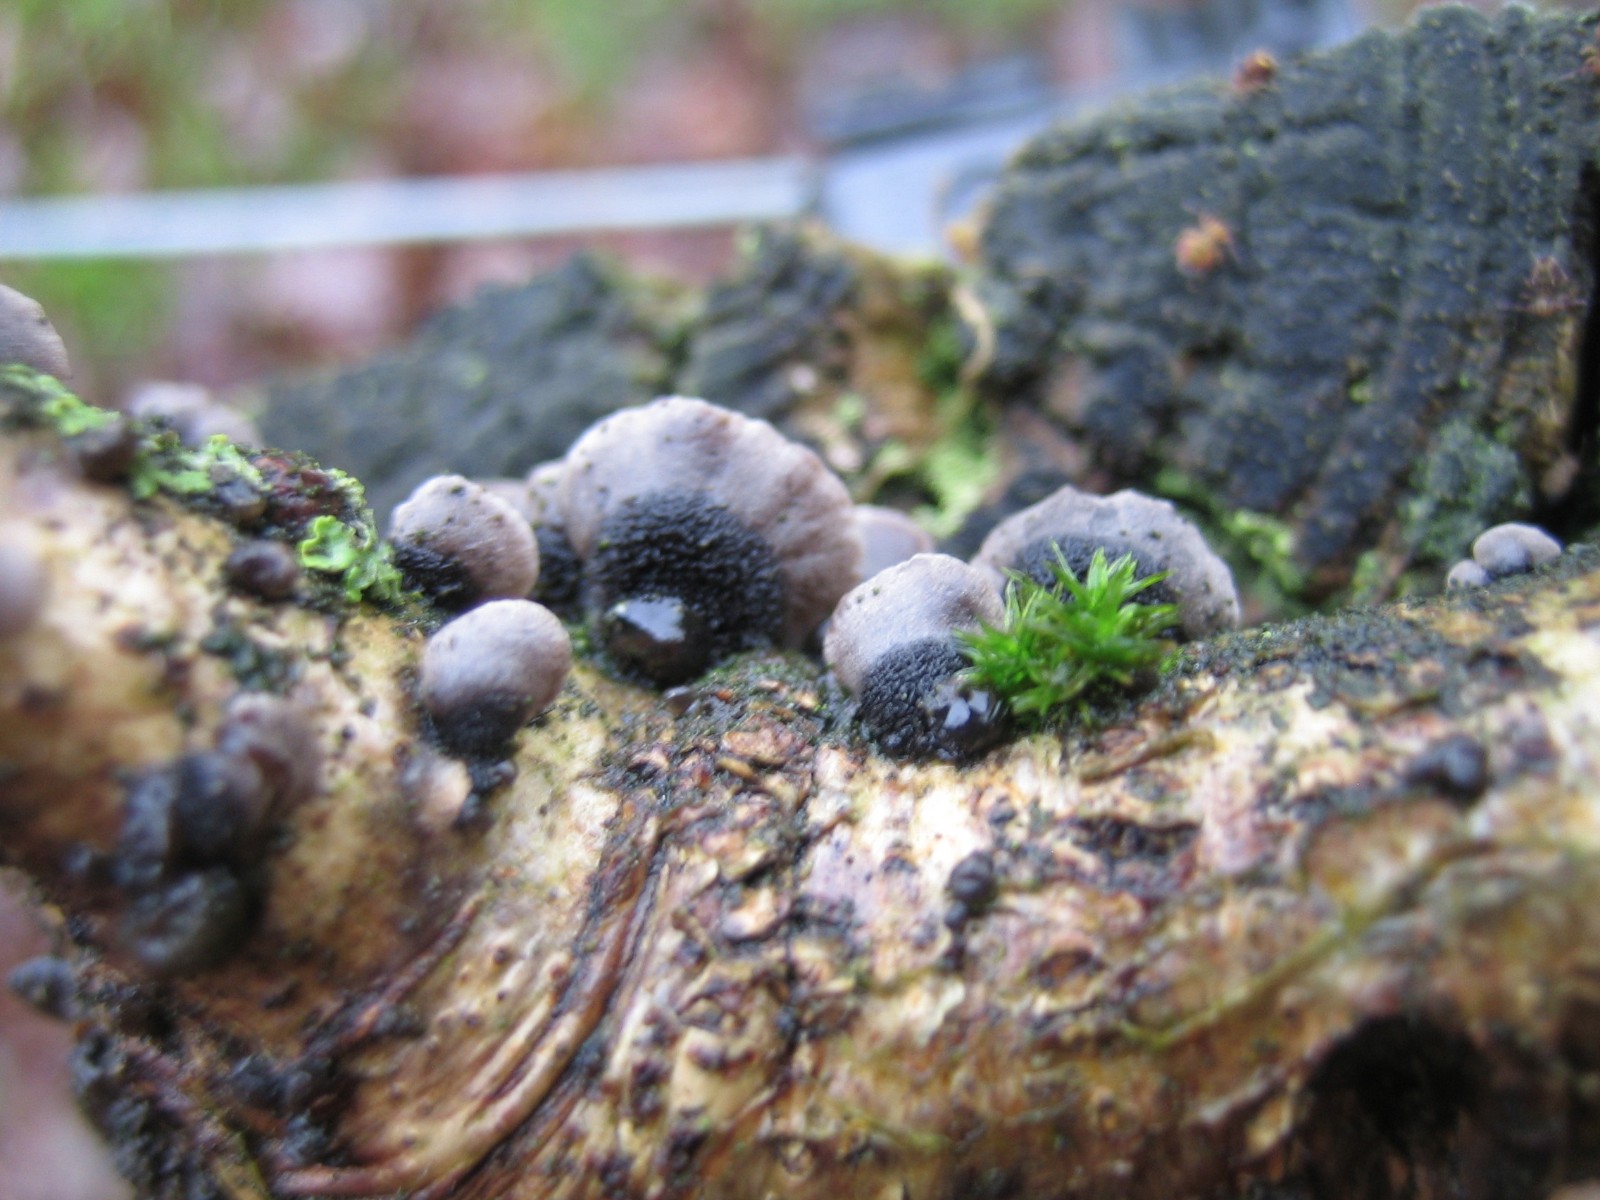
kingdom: Fungi
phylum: Basidiomycota
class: Agaricomycetes
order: Agaricales
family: Pleurotaceae
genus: Resupinatus
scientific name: Resupinatus trichotis
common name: mørkfiltet barkhat
